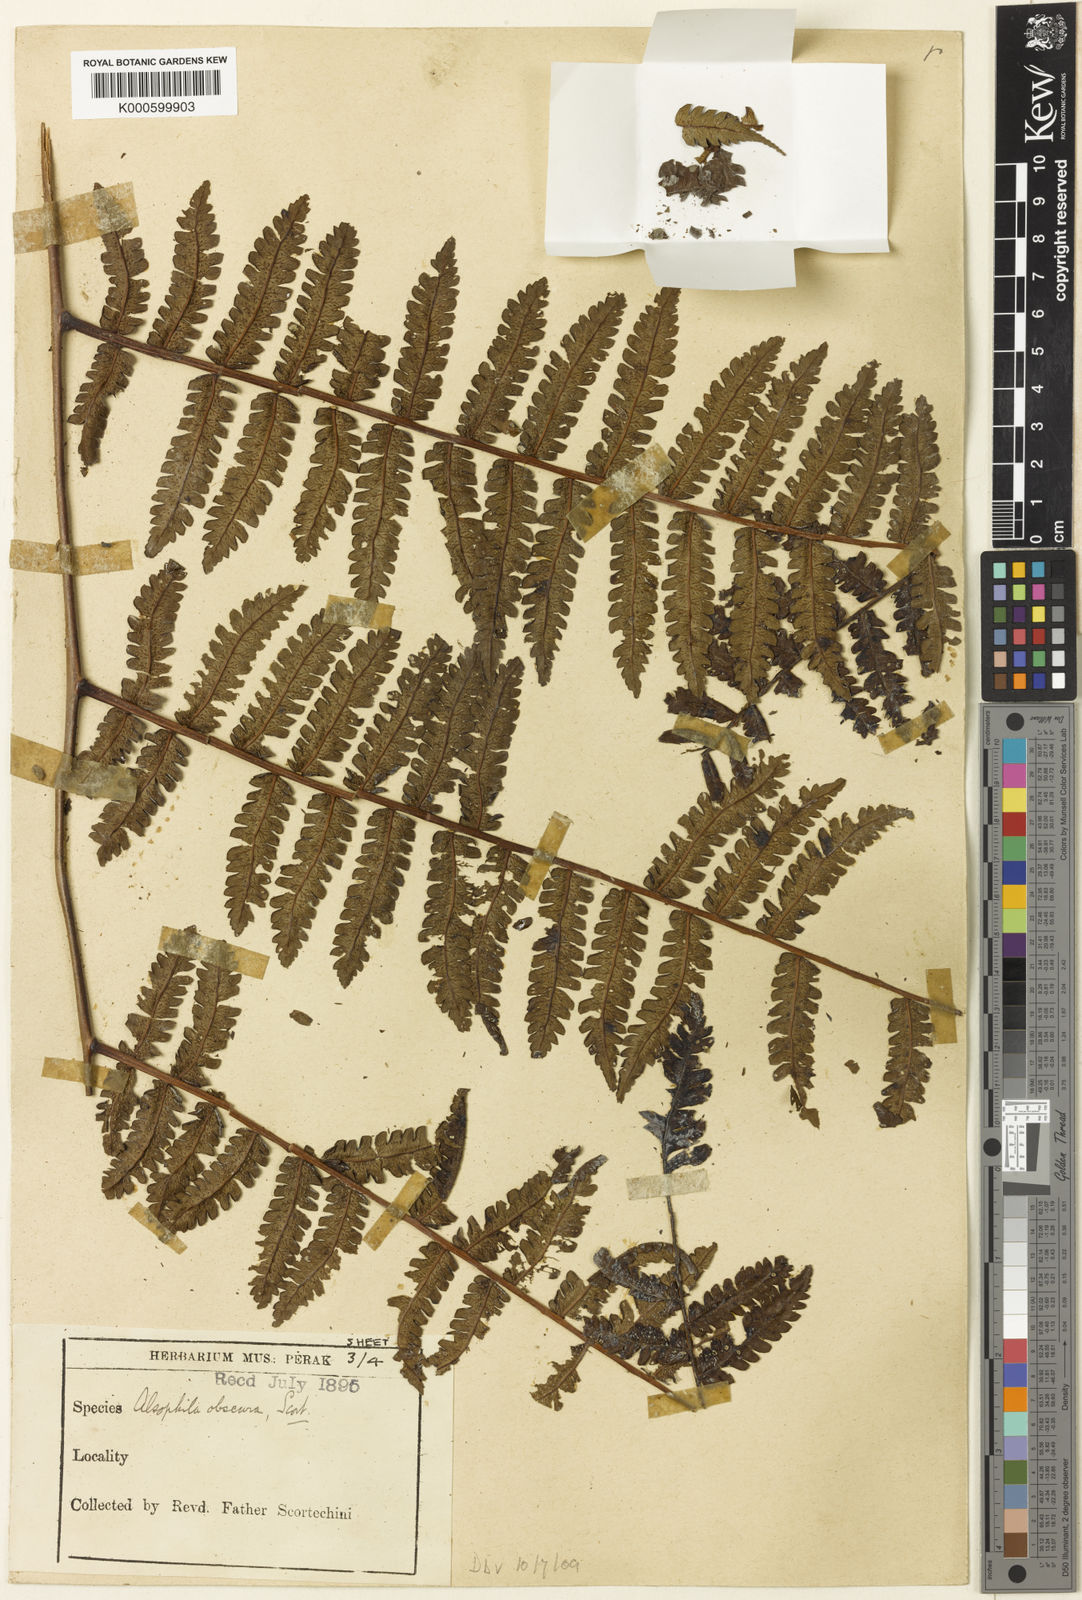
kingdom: Plantae
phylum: Tracheophyta
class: Polypodiopsida
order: Cyatheales
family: Cyatheaceae
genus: Sphaeropteris
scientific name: Sphaeropteris obscura
